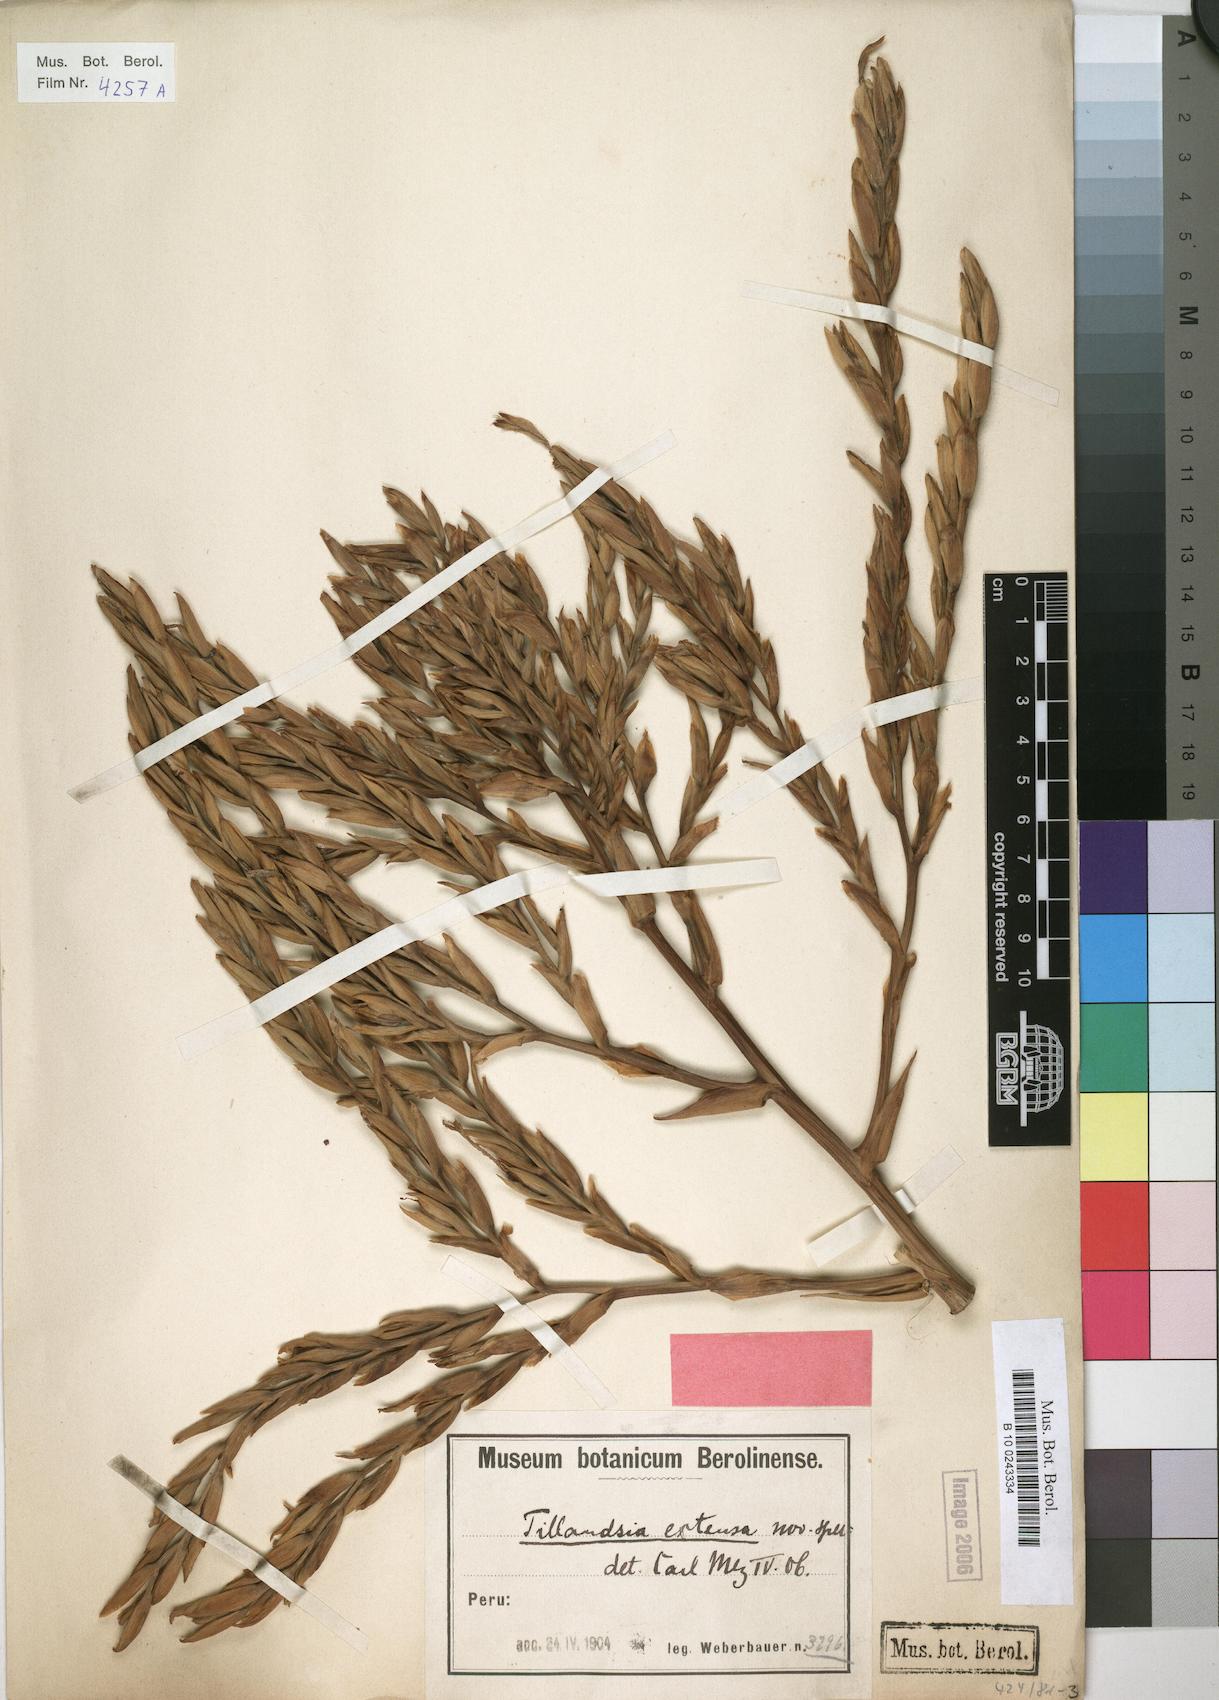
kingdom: Plantae
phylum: Tracheophyta
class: Liliopsida
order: Poales
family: Bromeliaceae
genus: Tillandsia
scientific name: Tillandsia extensa
